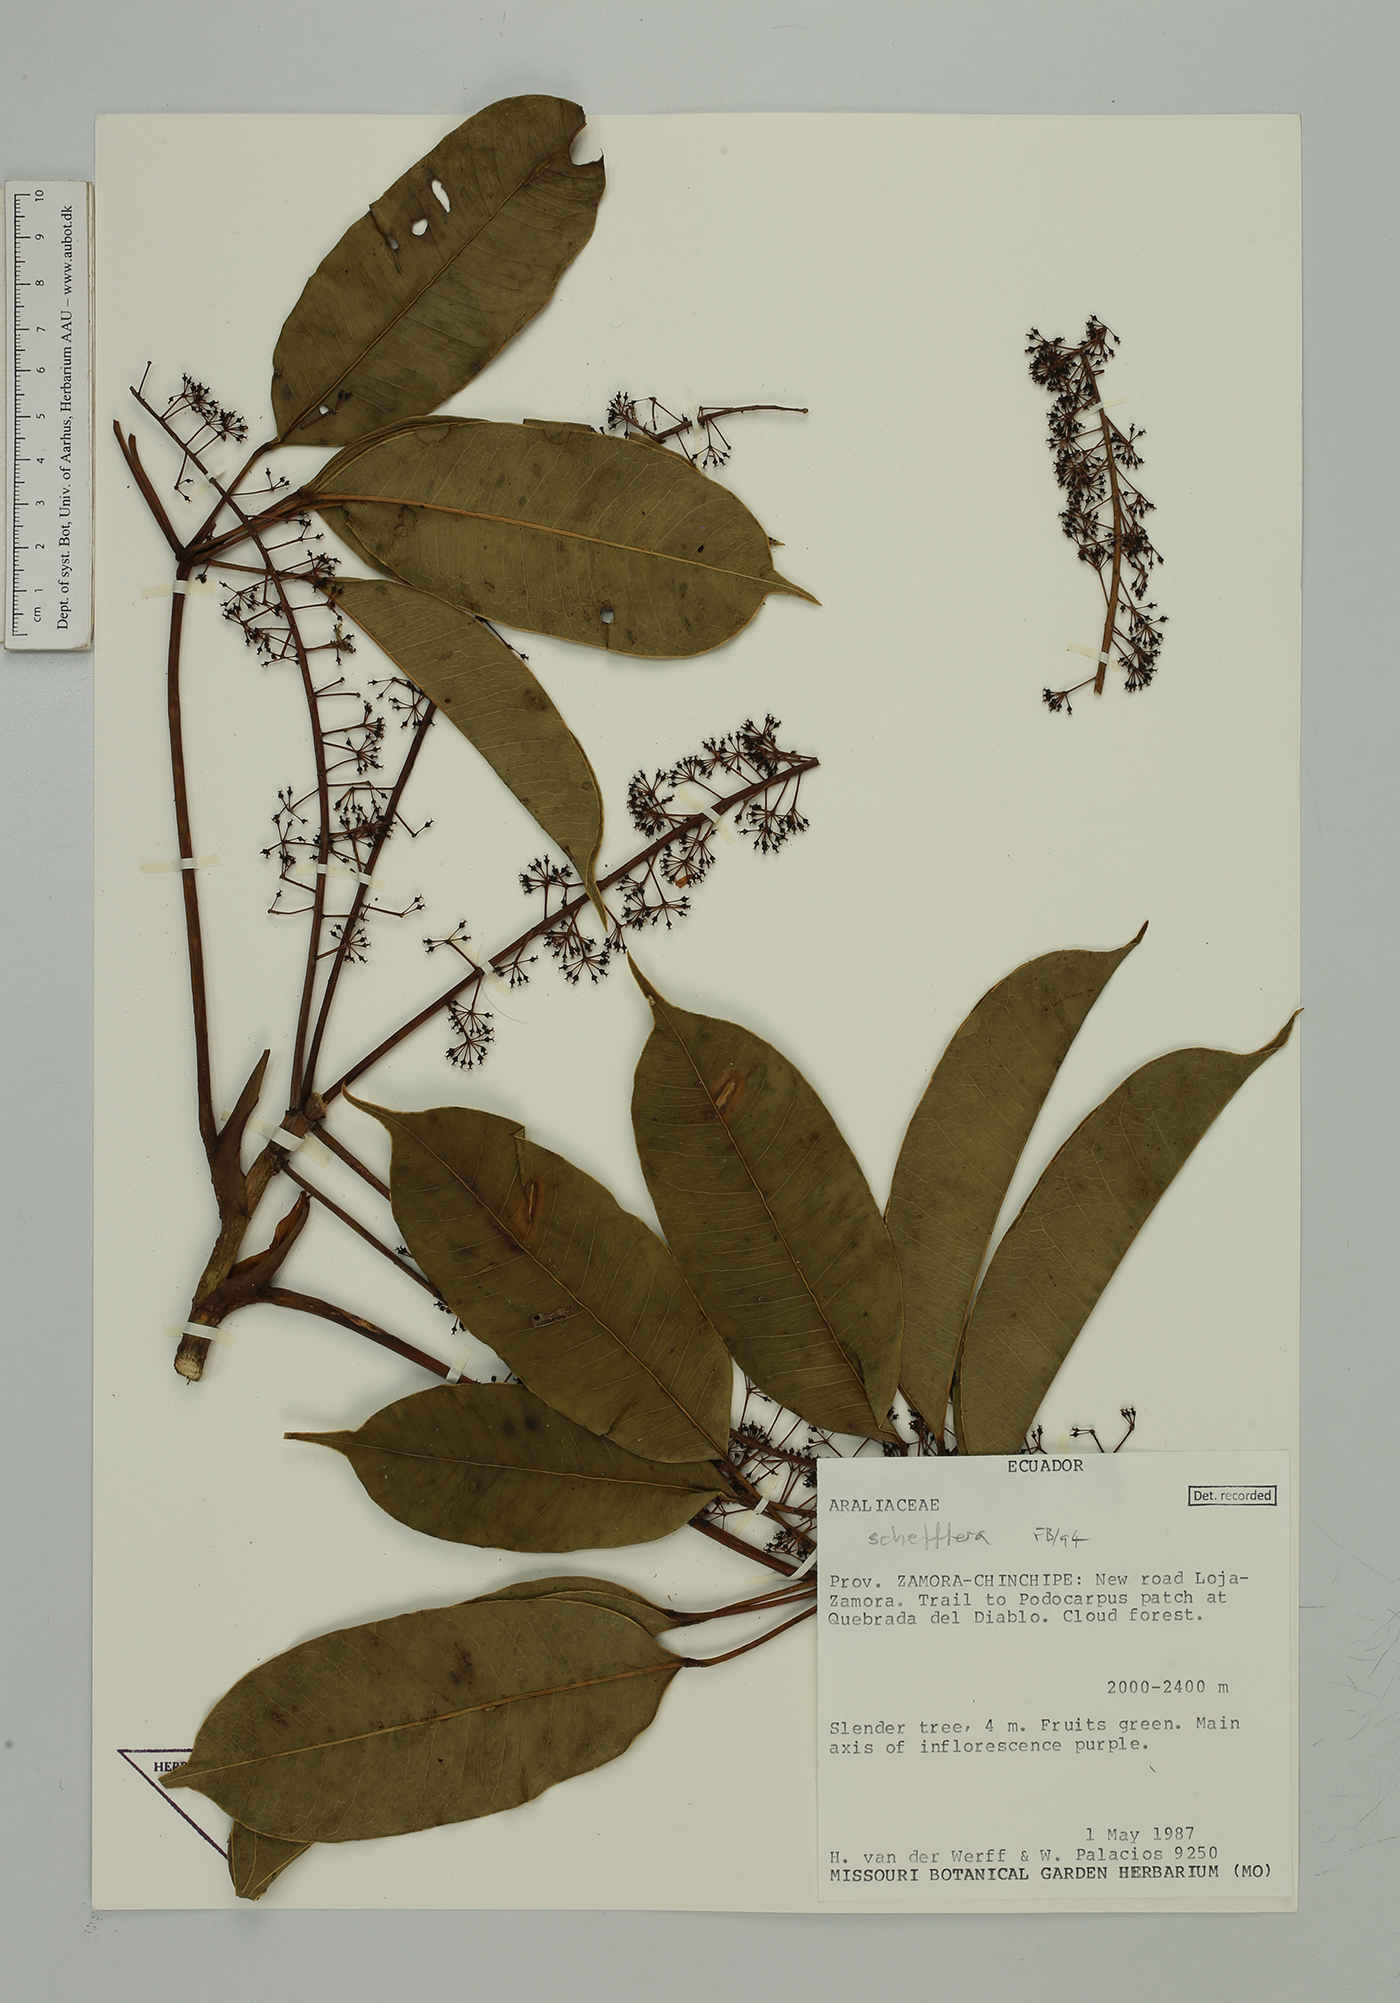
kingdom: Plantae
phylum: Tracheophyta
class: Magnoliopsida
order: Apiales
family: Araliaceae
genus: Sciodaphyllum
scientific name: Sciodaphyllum
